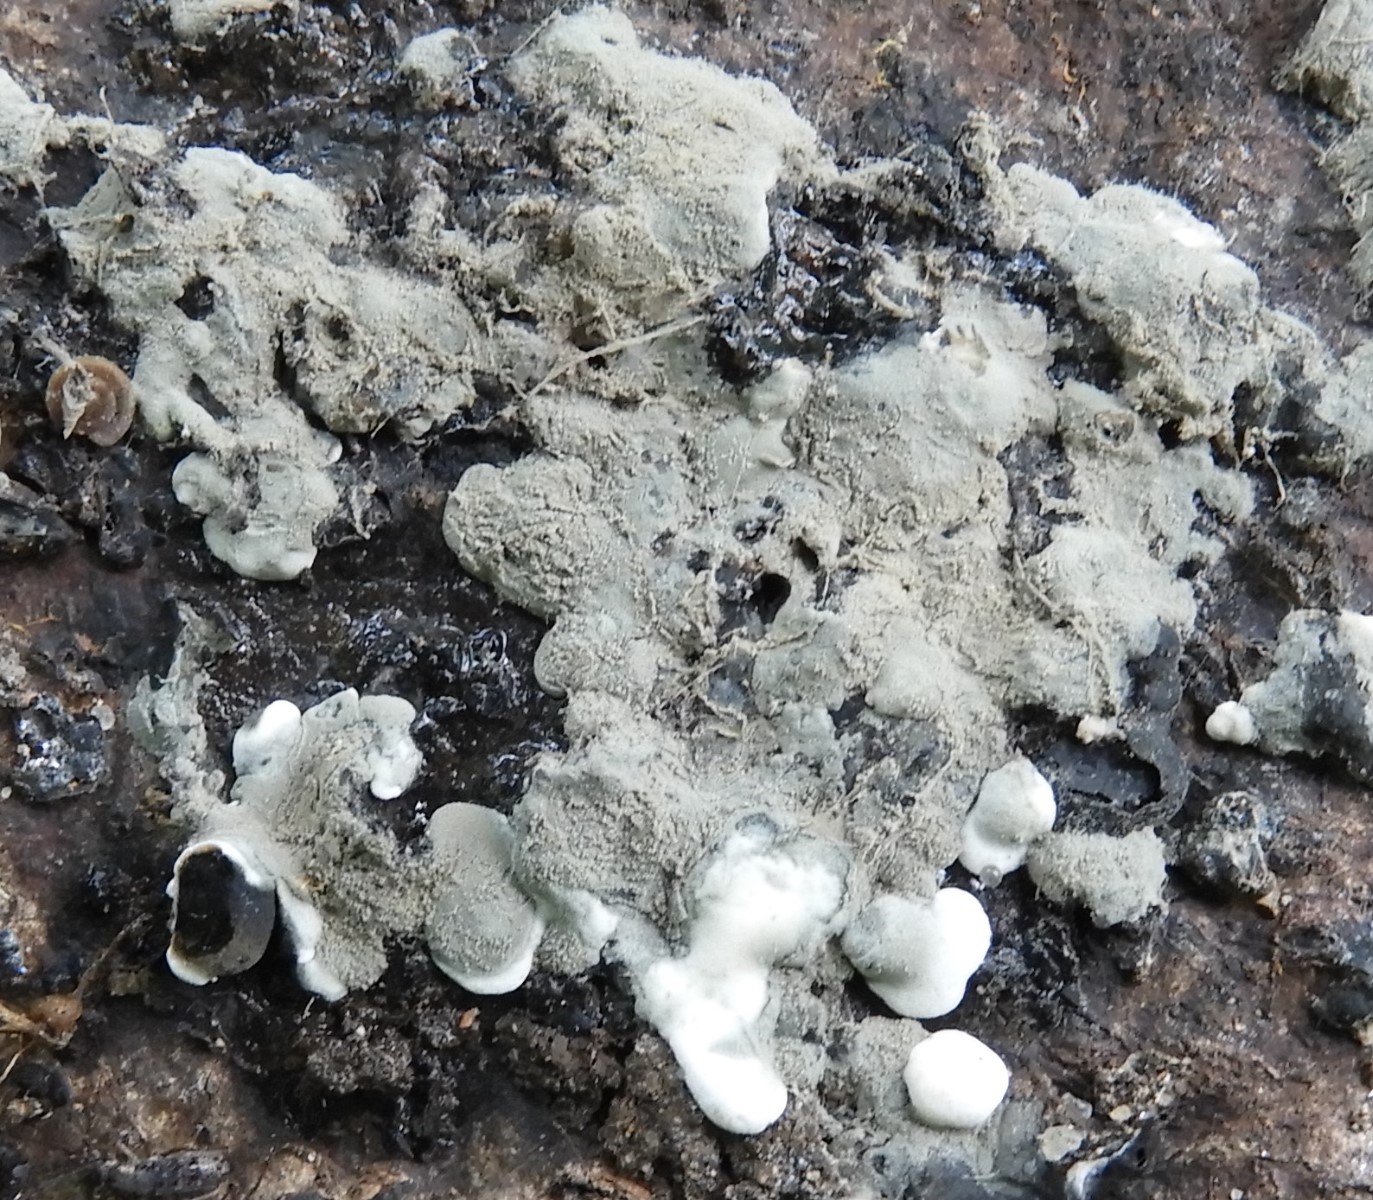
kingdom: Fungi
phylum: Ascomycota
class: Sordariomycetes
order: Xylariales
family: Xylariaceae
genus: Kretzschmaria
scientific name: Kretzschmaria deusta
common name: stor kulsvamp
